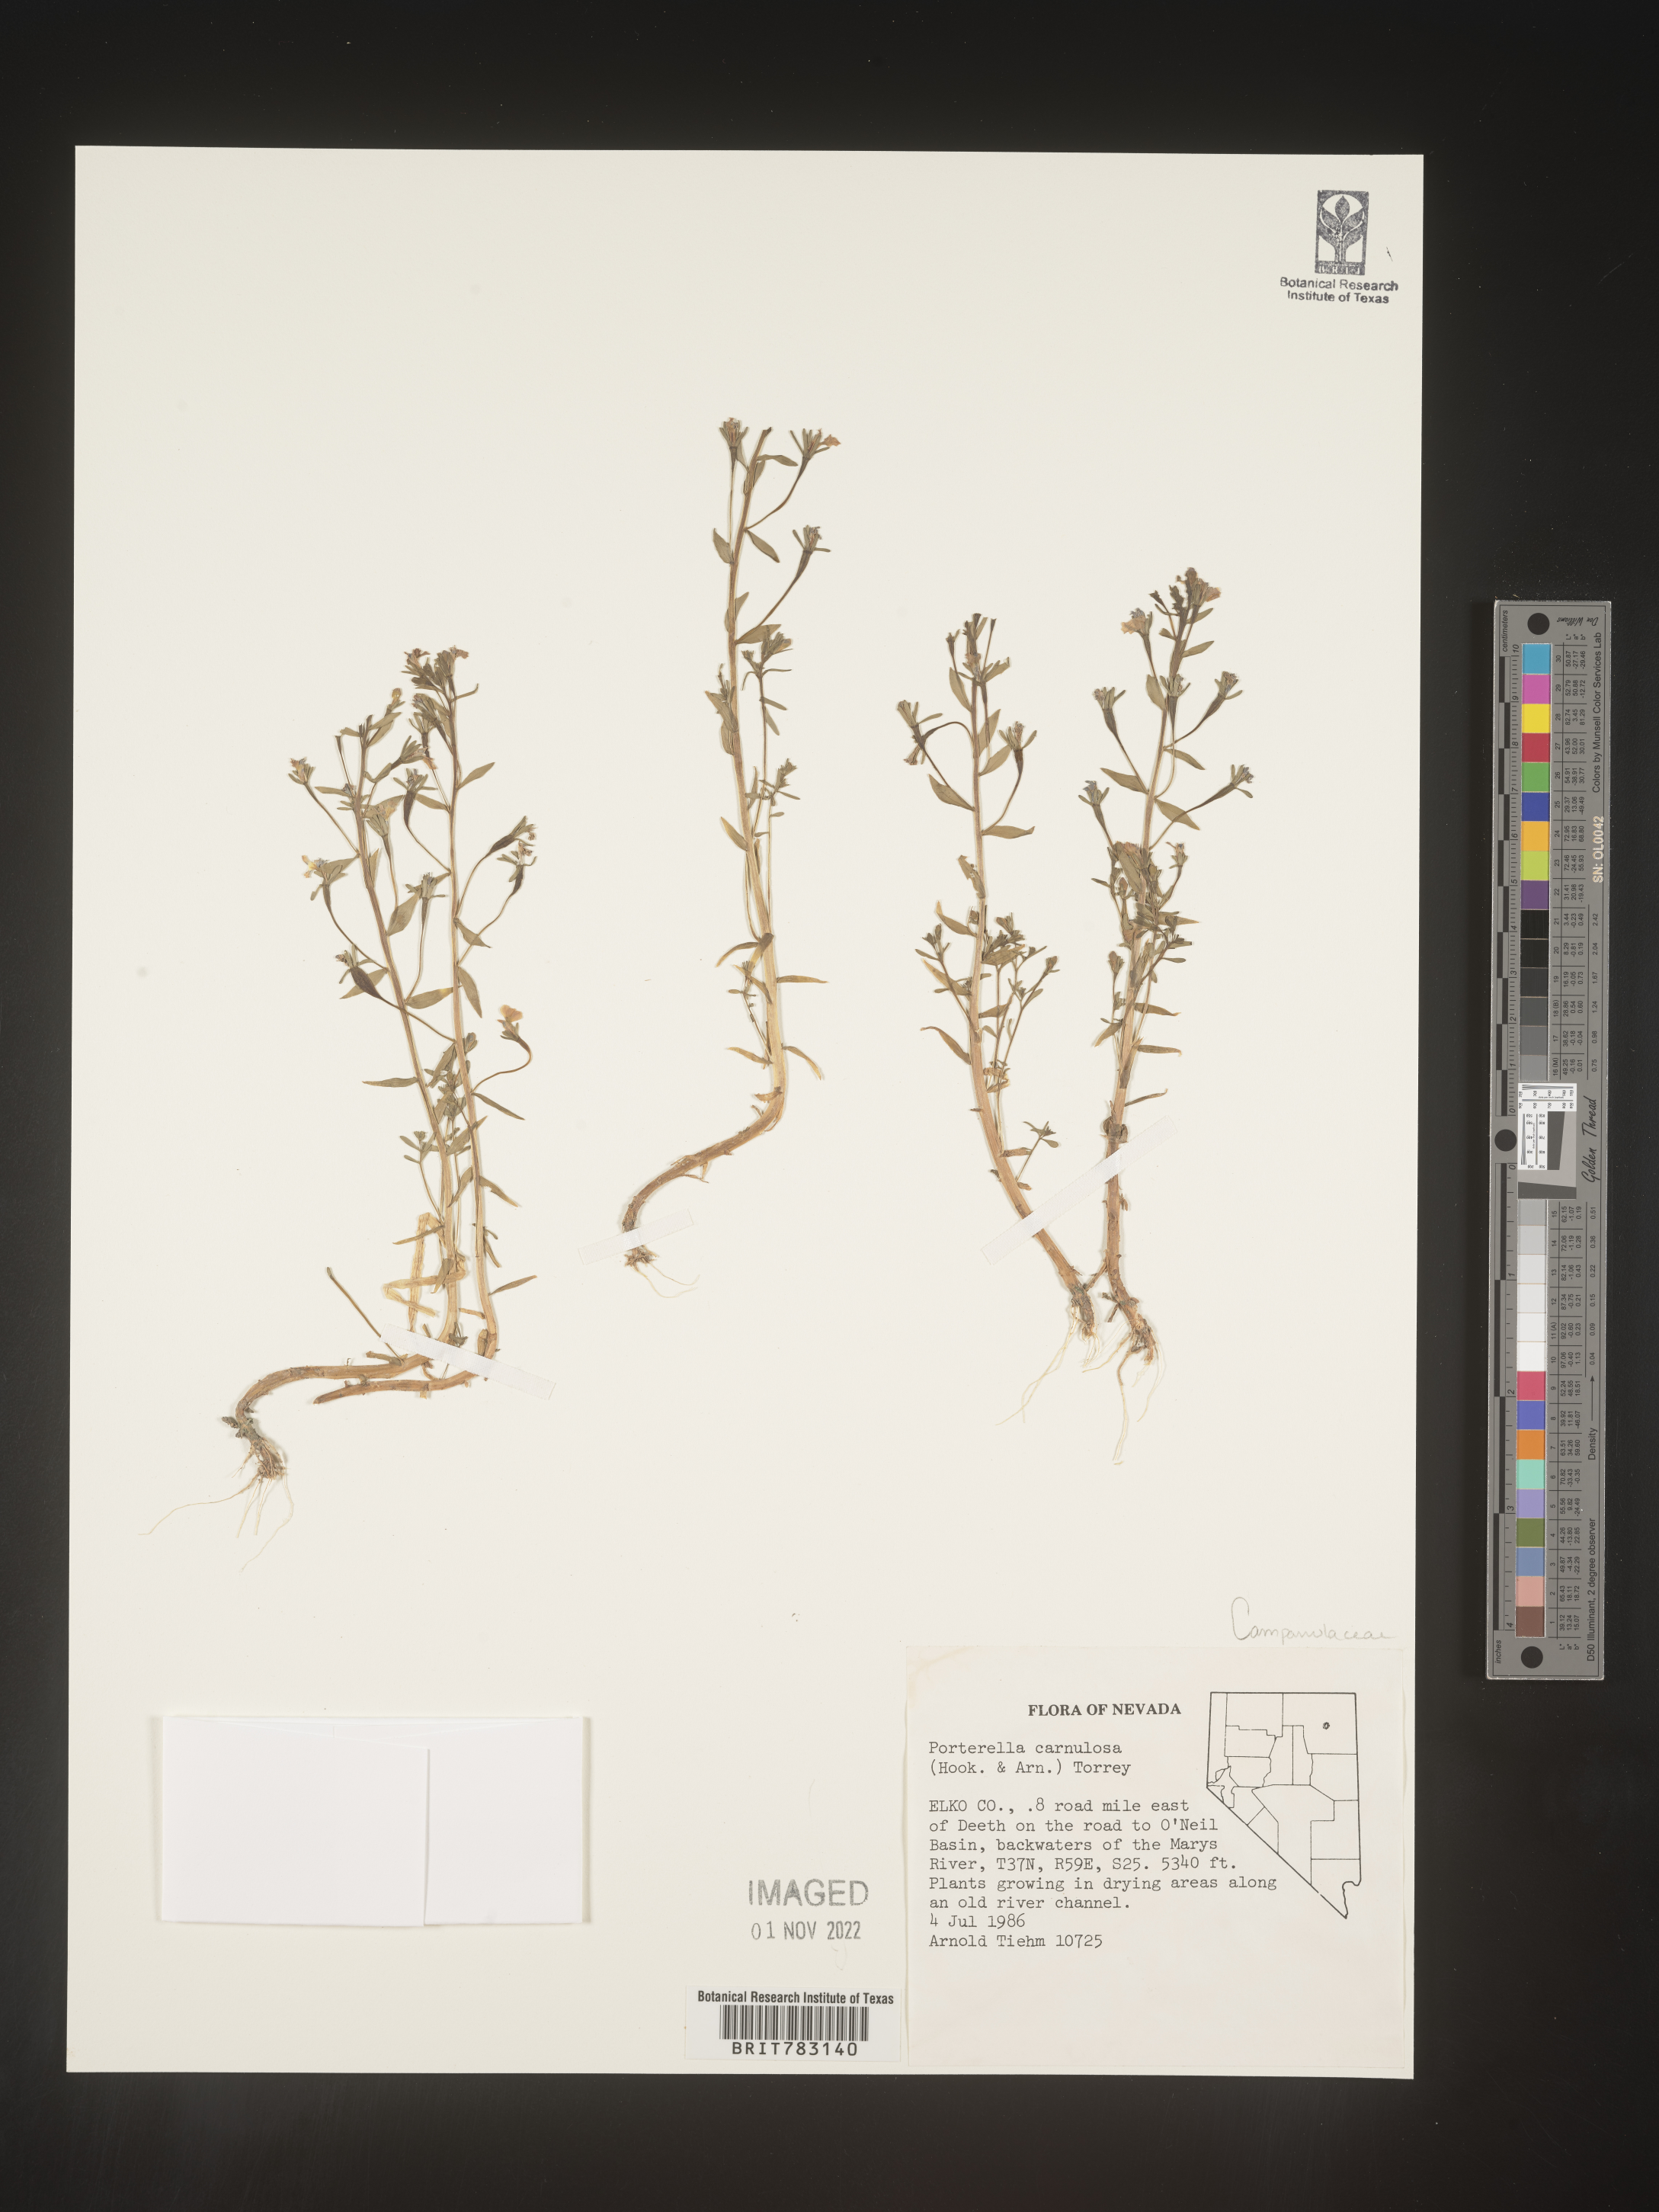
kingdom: Plantae
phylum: Tracheophyta
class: Magnoliopsida
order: Asterales
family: Campanulaceae
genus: Porterella
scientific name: Porterella
